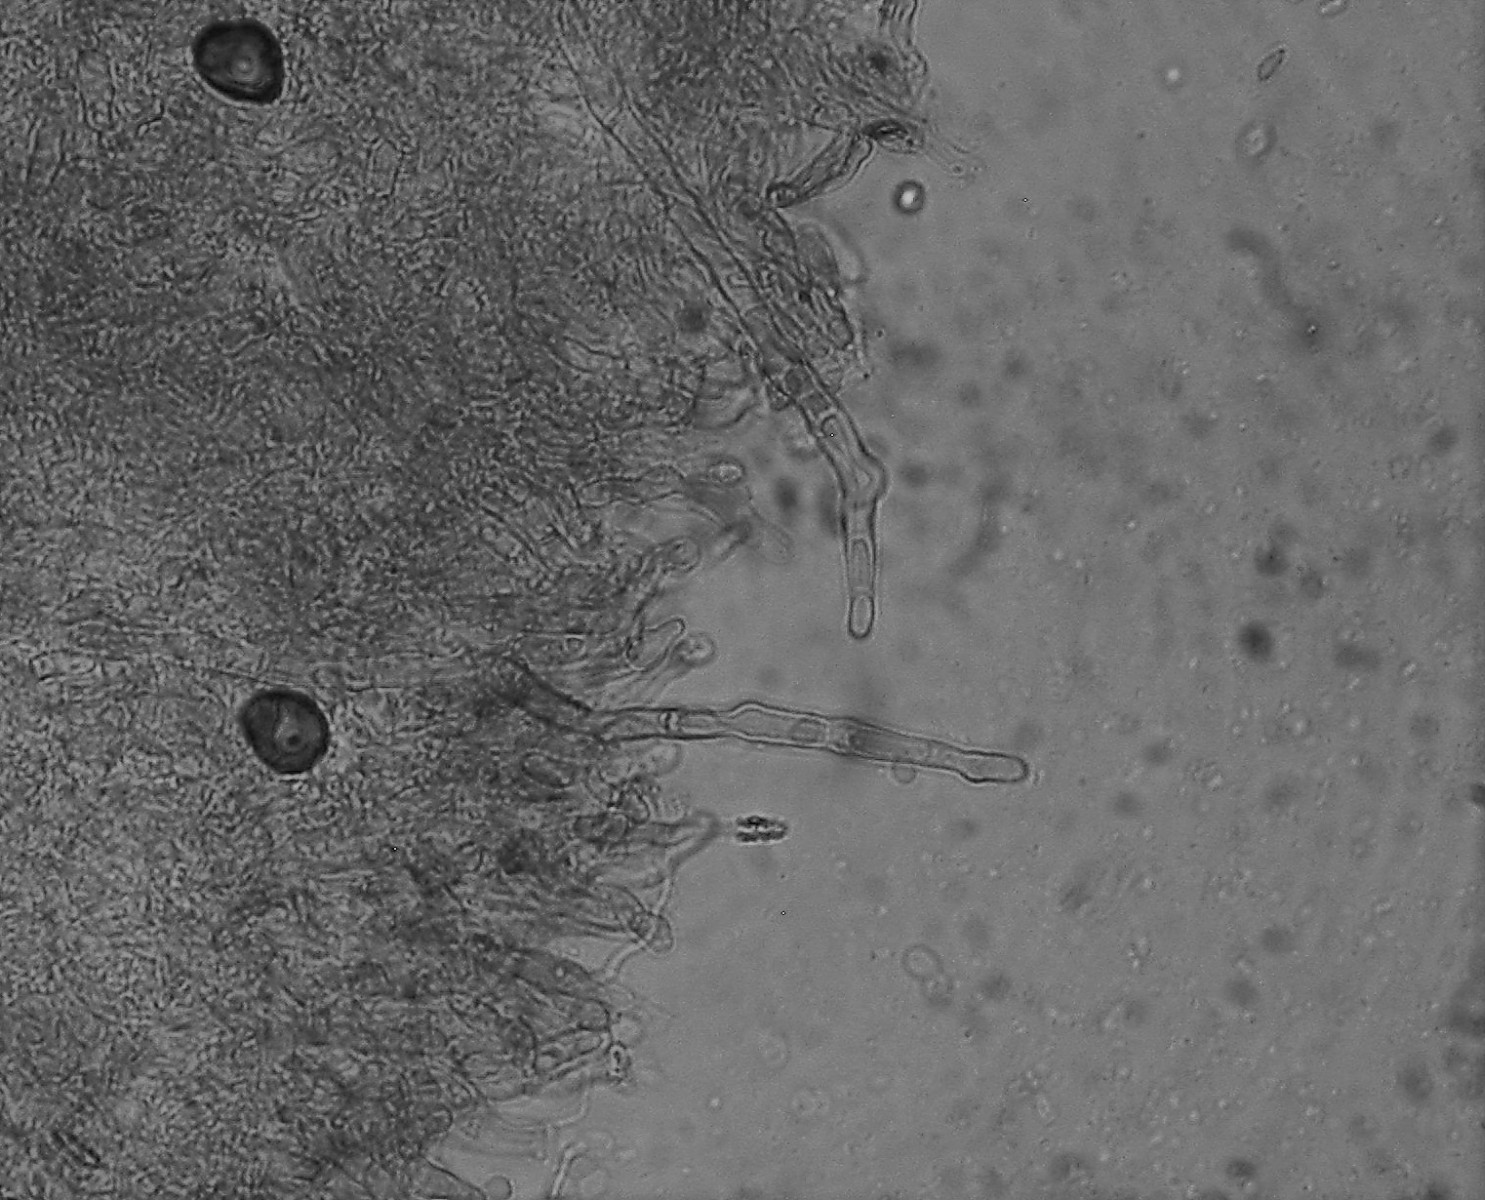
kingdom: Fungi
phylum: Basidiomycota
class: Agaricomycetes
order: Hymenochaetales
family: Hyphodontiaceae
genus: Hyphodontia
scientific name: Hyphodontia alutaria
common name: flaskerenser-nålehinde
